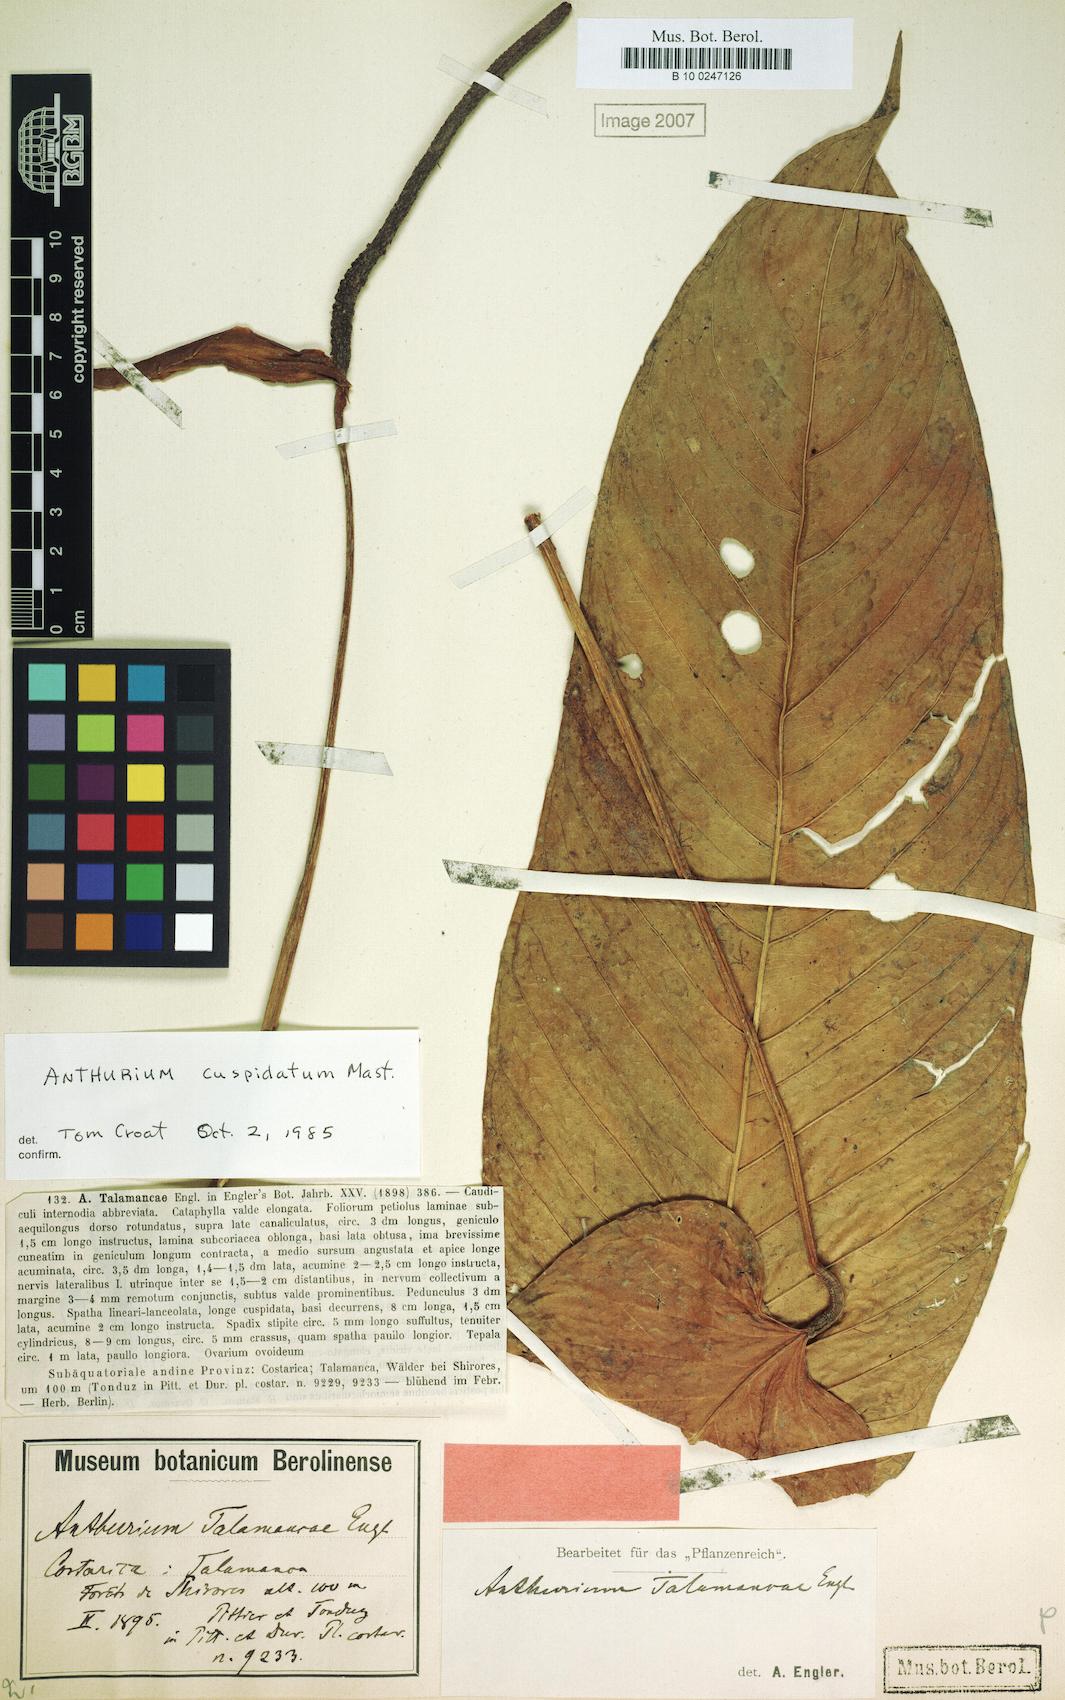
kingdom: Plantae
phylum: Tracheophyta
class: Liliopsida
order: Alismatales
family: Araceae
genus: Anthurium
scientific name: Anthurium talamancae
